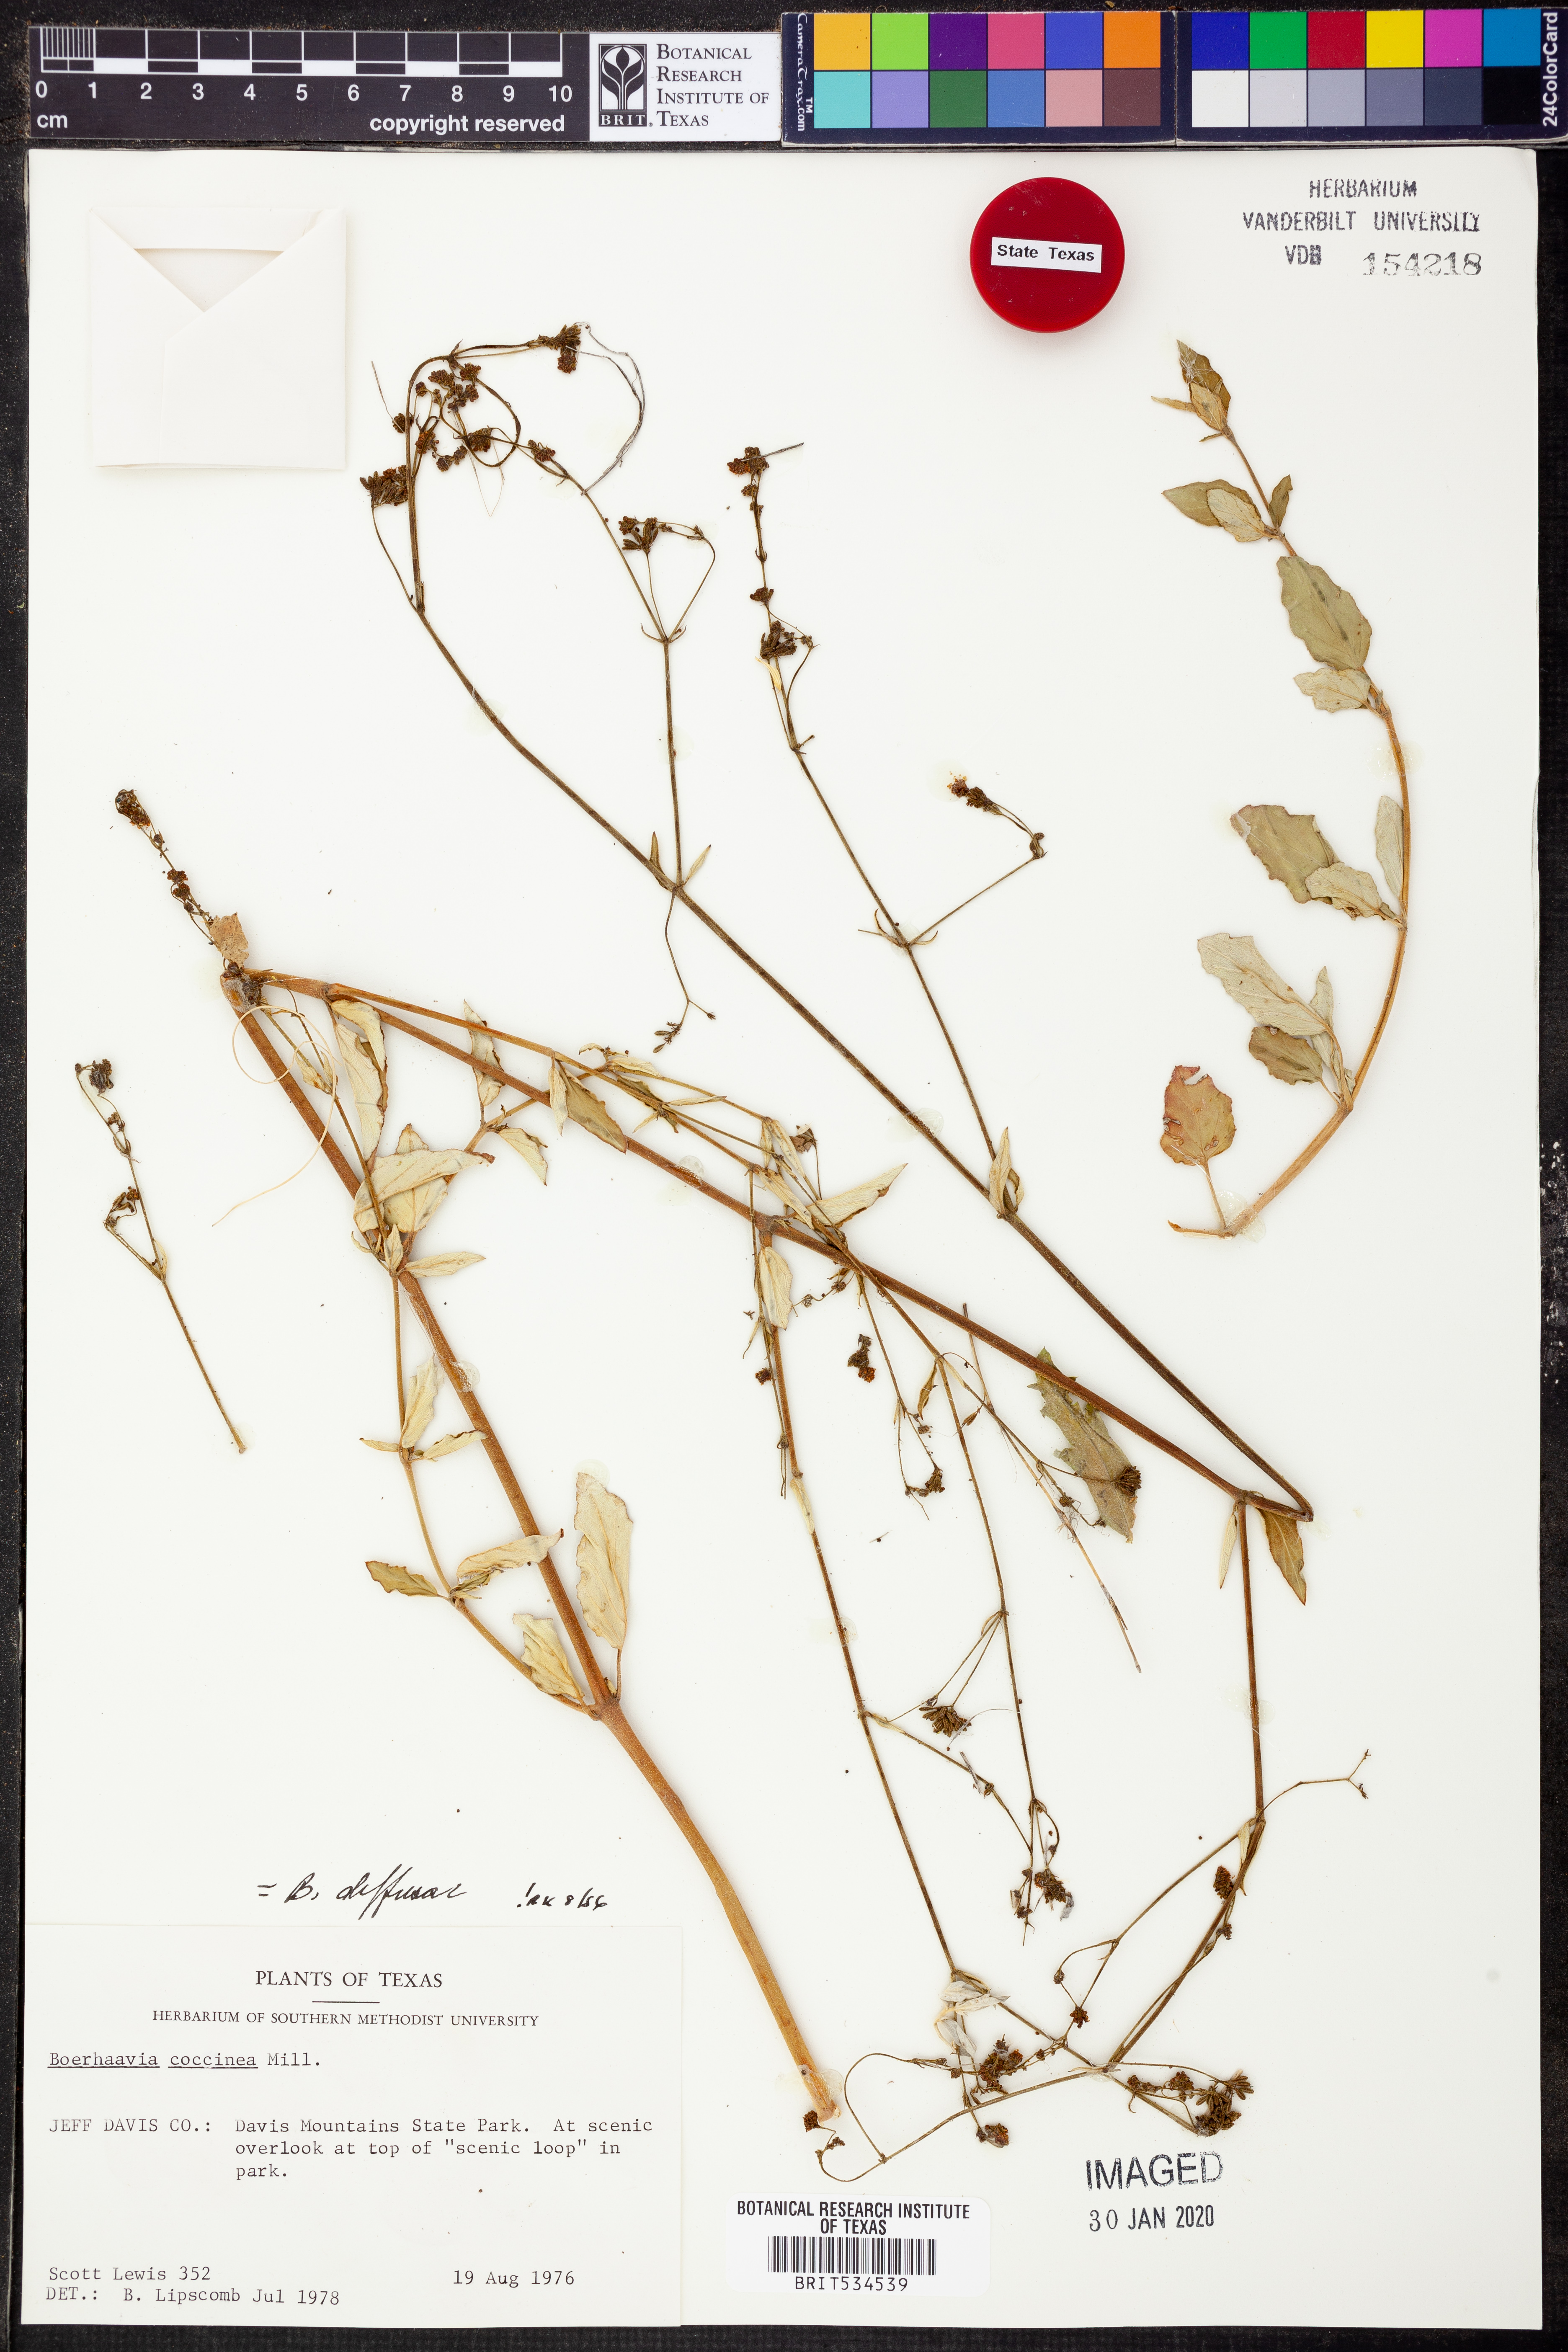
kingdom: Plantae
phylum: Tracheophyta
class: Magnoliopsida
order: Caryophyllales
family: Nyctaginaceae
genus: Boerhavia
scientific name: Boerhavia diffusa
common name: Red spiderling
